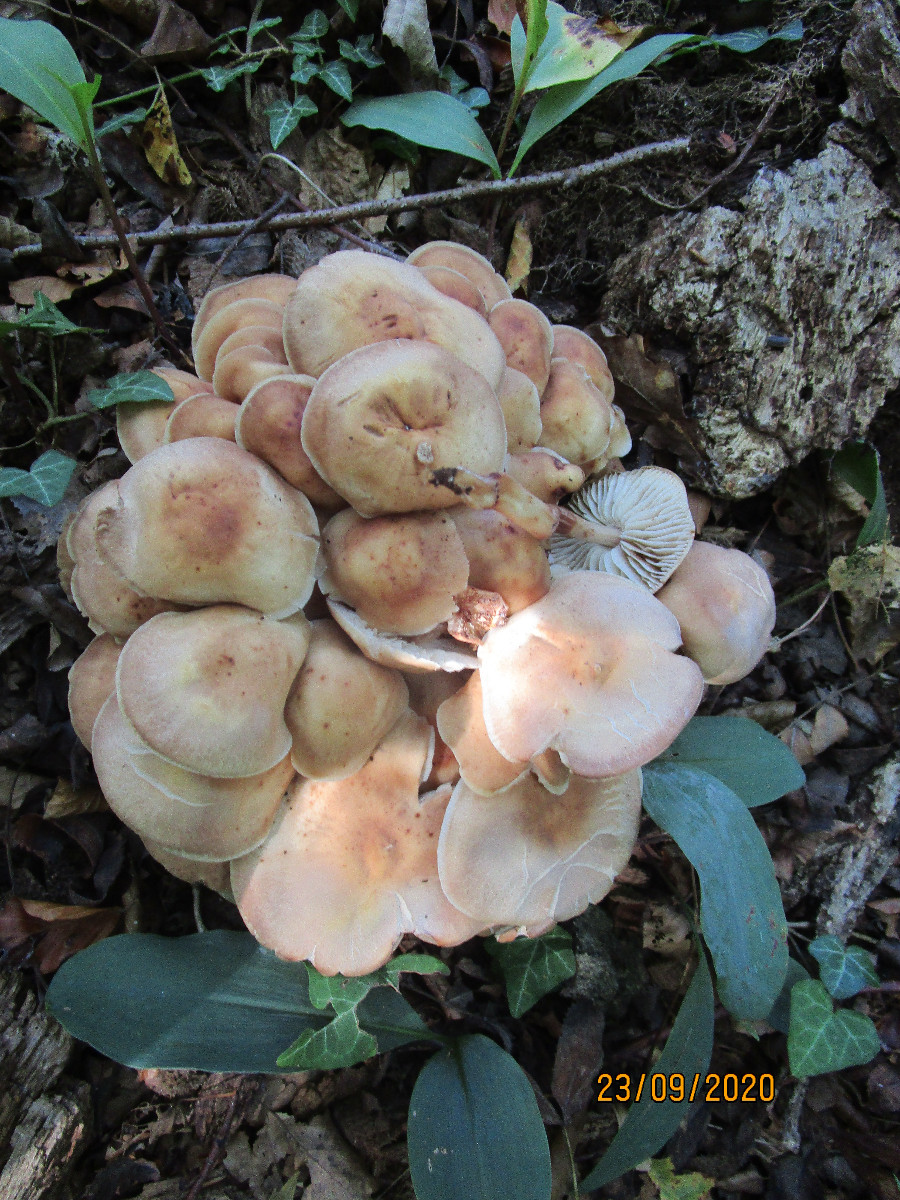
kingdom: Fungi
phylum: Basidiomycota
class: Agaricomycetes
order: Agaricales
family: Omphalotaceae
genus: Gymnopus
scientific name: Gymnopus fusipes
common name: tenstokket fladhat
